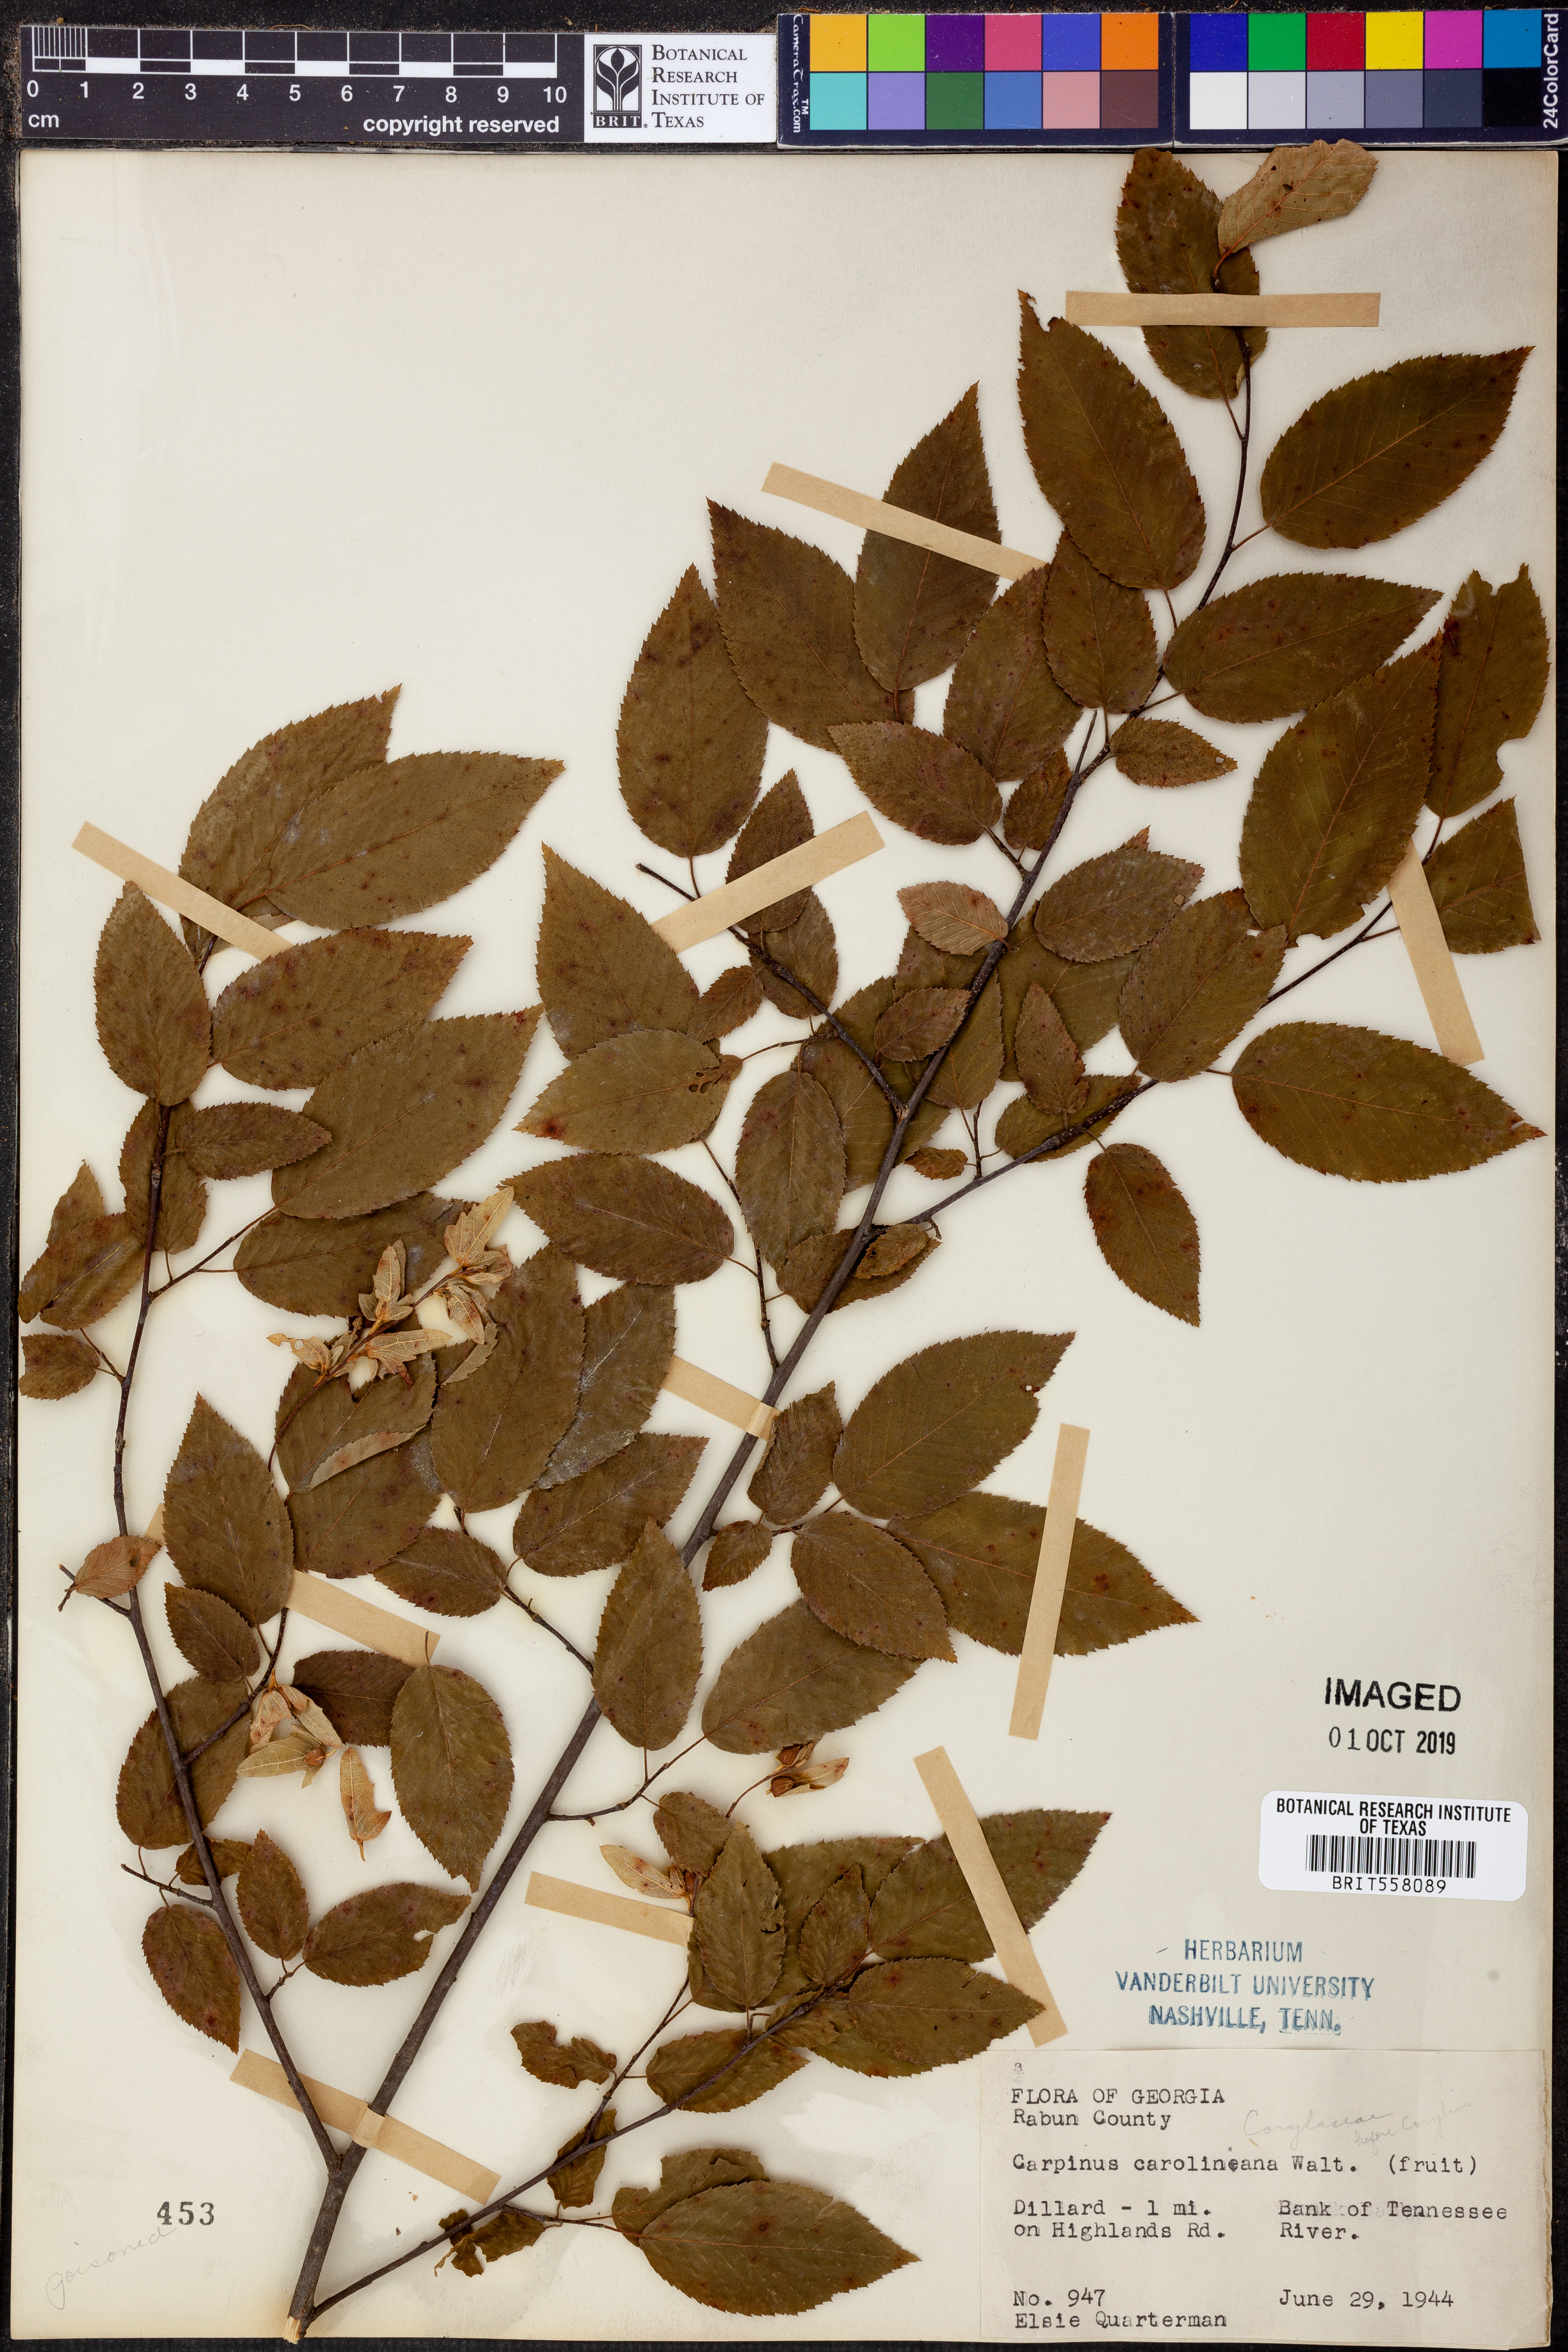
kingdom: Plantae
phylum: Tracheophyta
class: Magnoliopsida
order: Fagales
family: Betulaceae
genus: Carpinus
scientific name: Carpinus caroliniana
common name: American hornbeam
